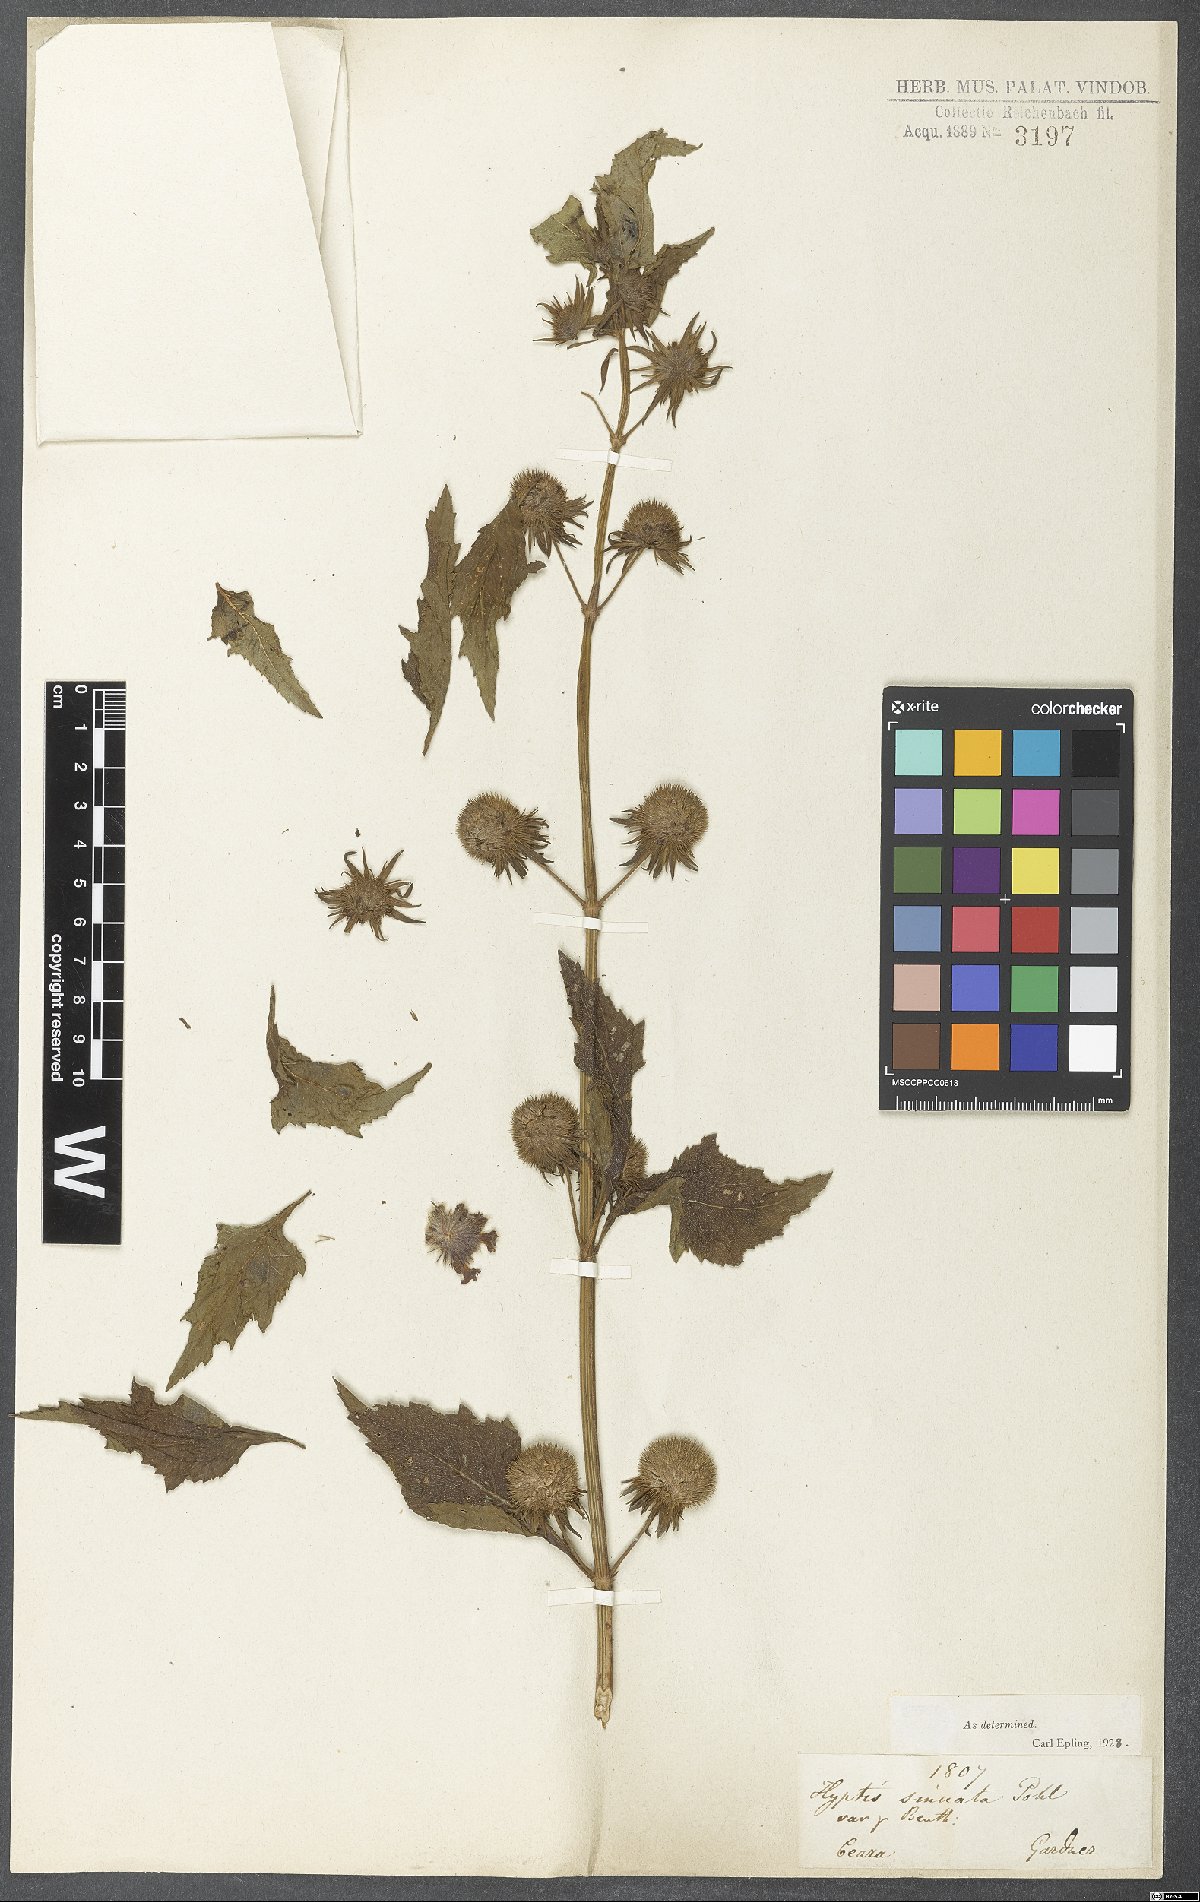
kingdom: Plantae
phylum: Tracheophyta
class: Magnoliopsida
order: Lamiales
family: Lamiaceae
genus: Hyptis
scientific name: Hyptis sinuata
